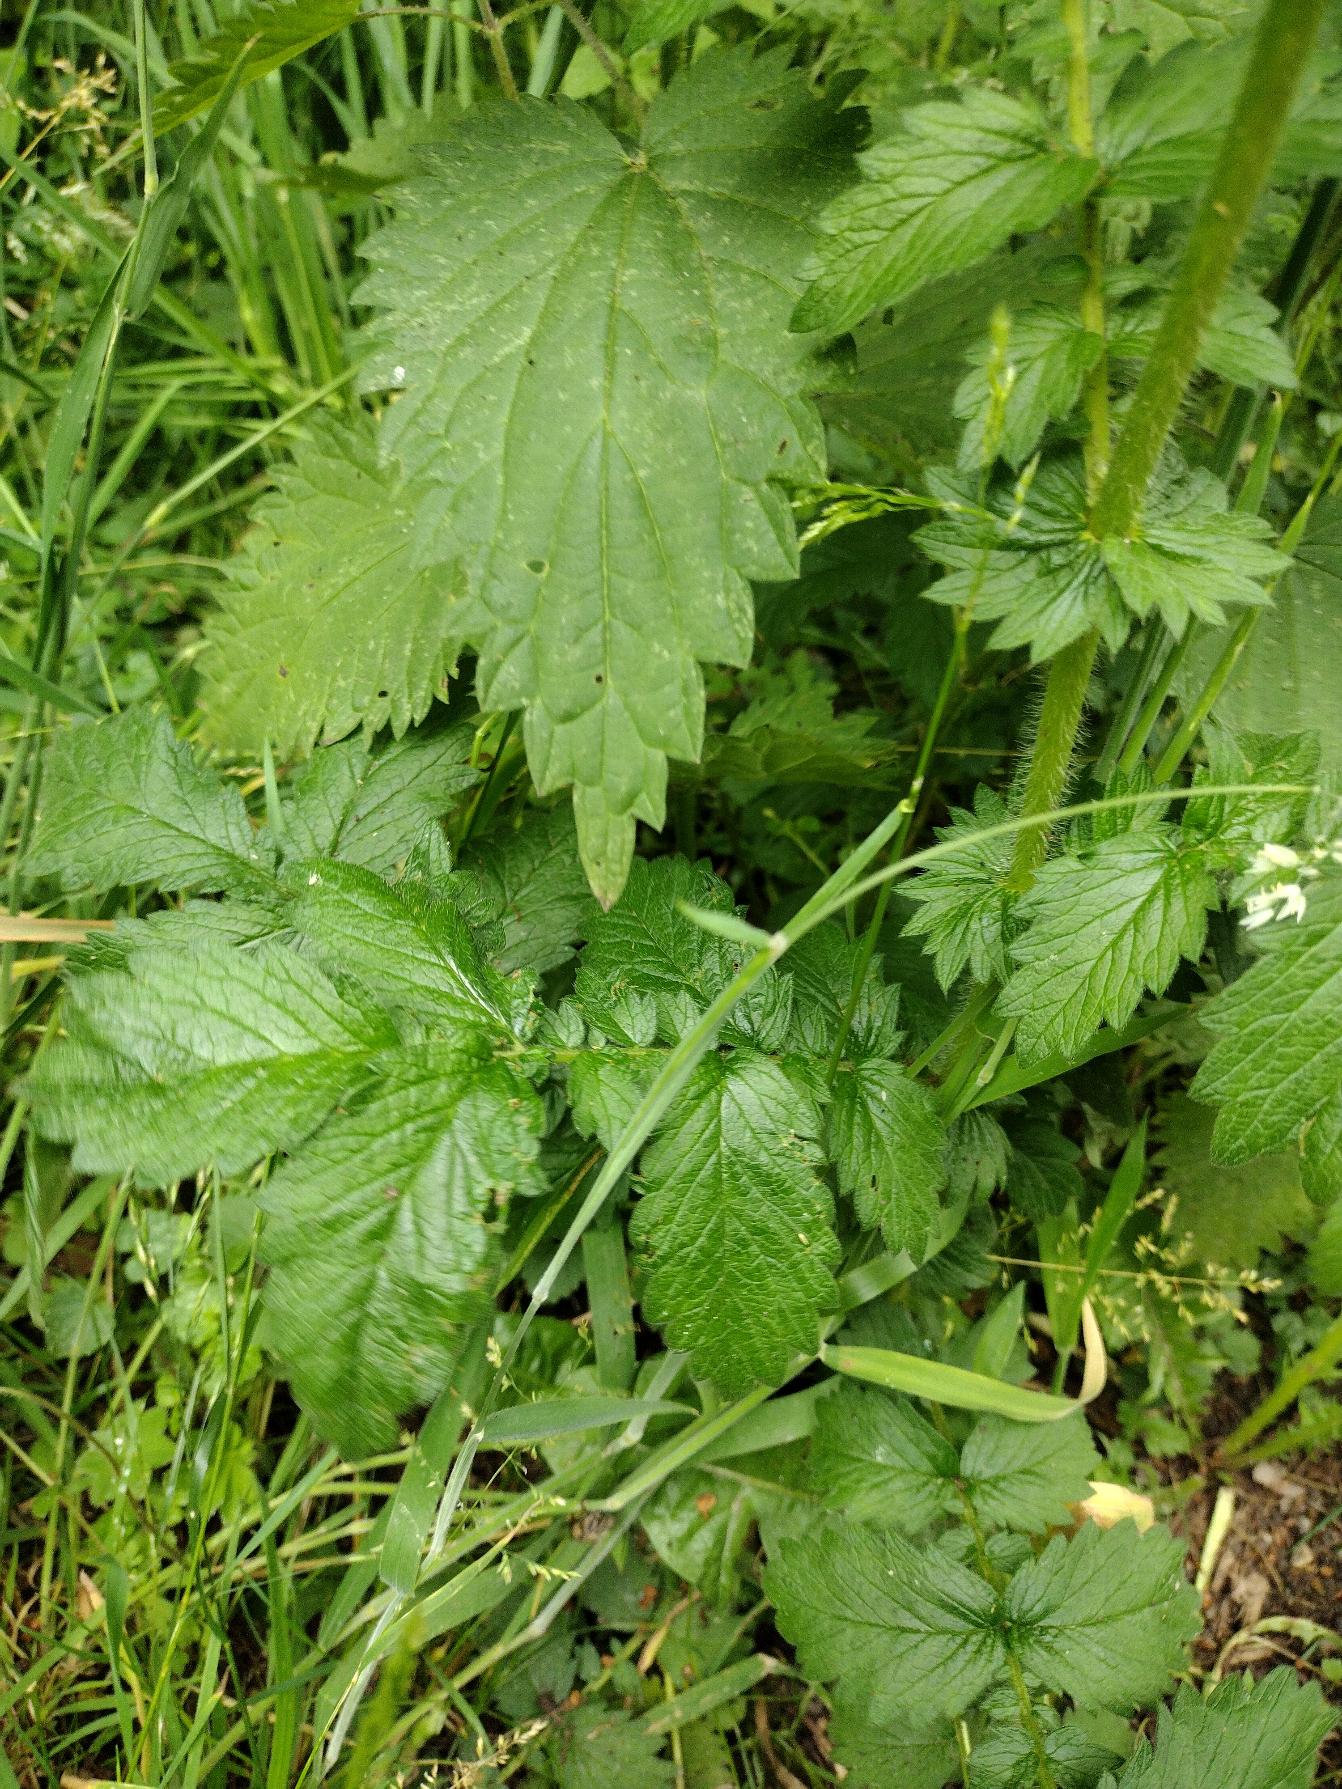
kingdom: Plantae
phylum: Tracheophyta
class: Magnoliopsida
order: Rosales
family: Rosaceae
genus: Agrimonia
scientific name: Agrimonia procera
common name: Vellugtende agermåne
